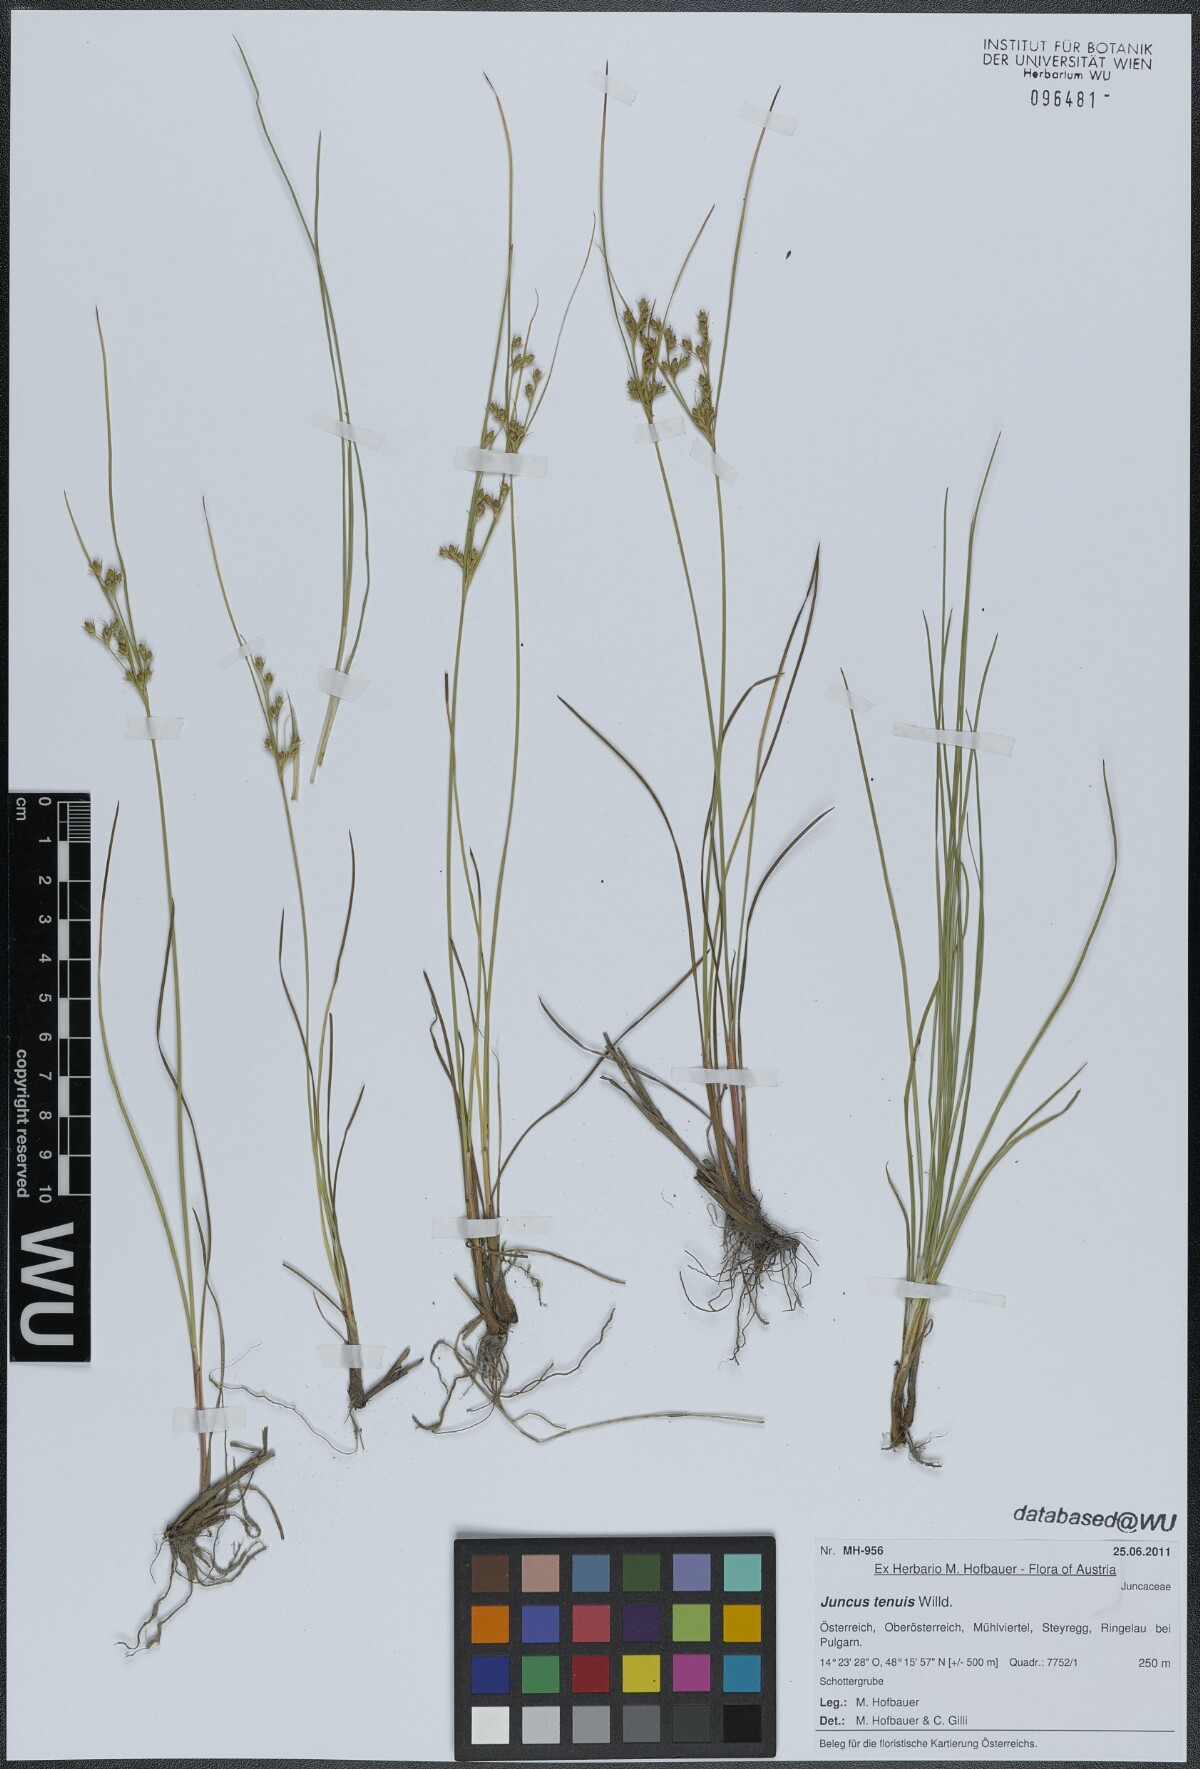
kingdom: Plantae
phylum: Tracheophyta
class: Liliopsida
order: Poales
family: Juncaceae
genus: Juncus
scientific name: Juncus tenuis
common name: Slender rush
